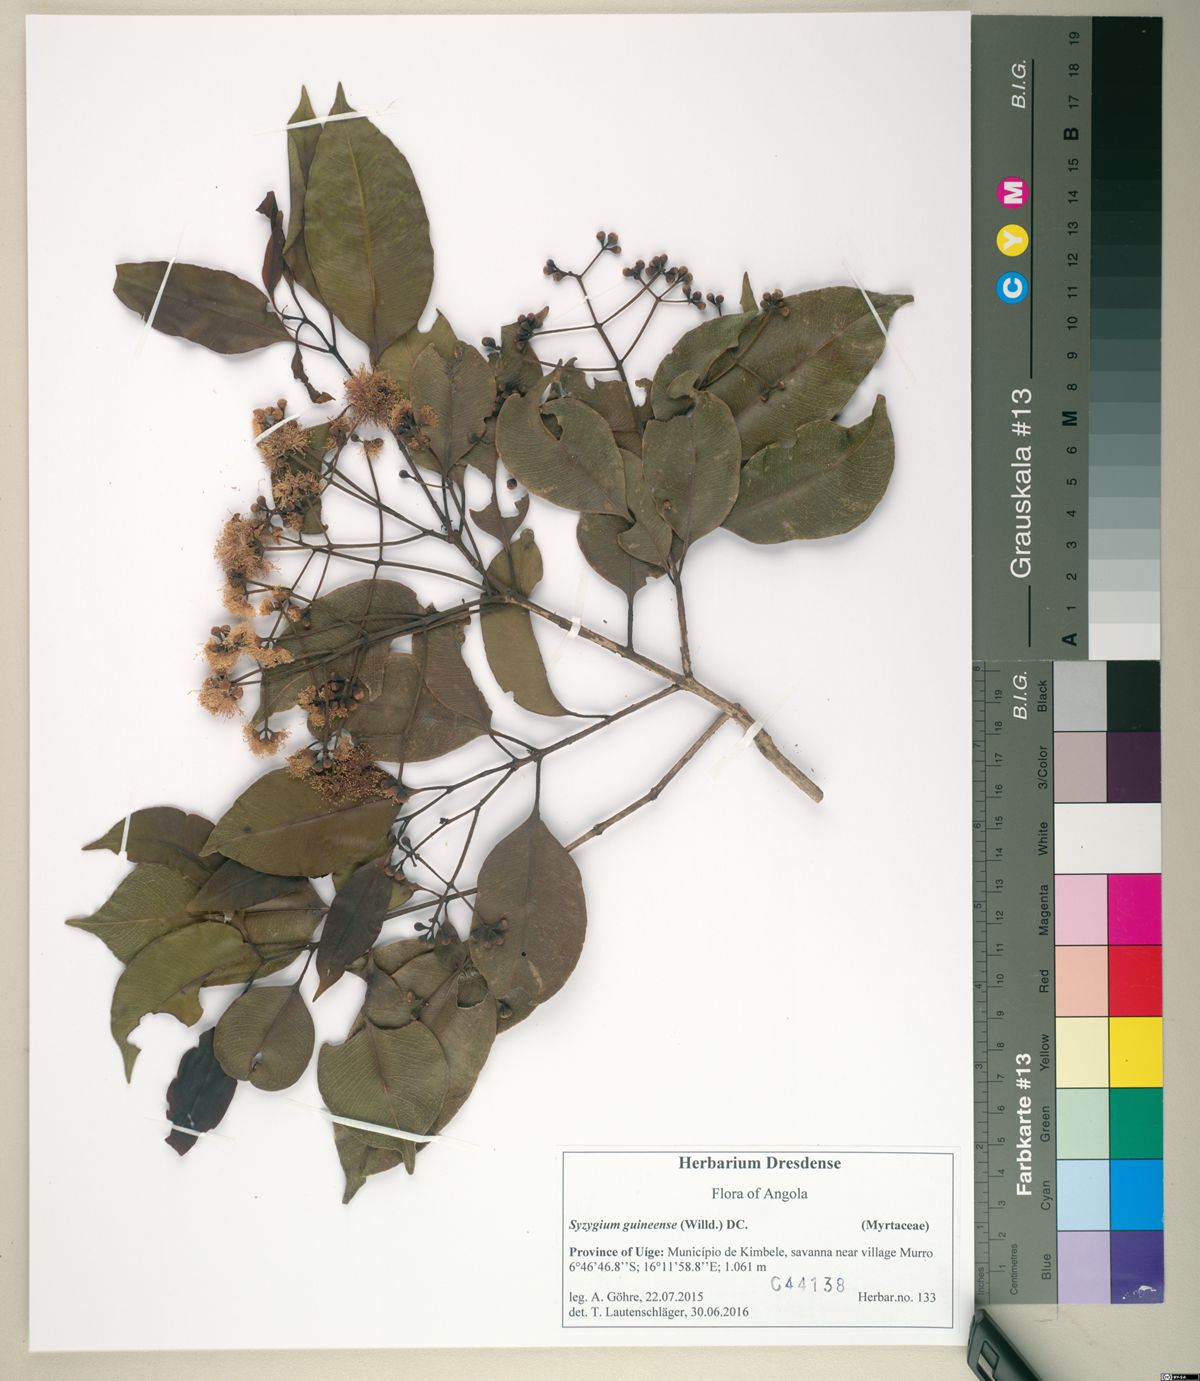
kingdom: Plantae
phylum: Tracheophyta
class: Magnoliopsida
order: Myrtales
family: Myrtaceae
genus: Syzygium
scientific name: Syzygium guineense
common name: Water-pear
